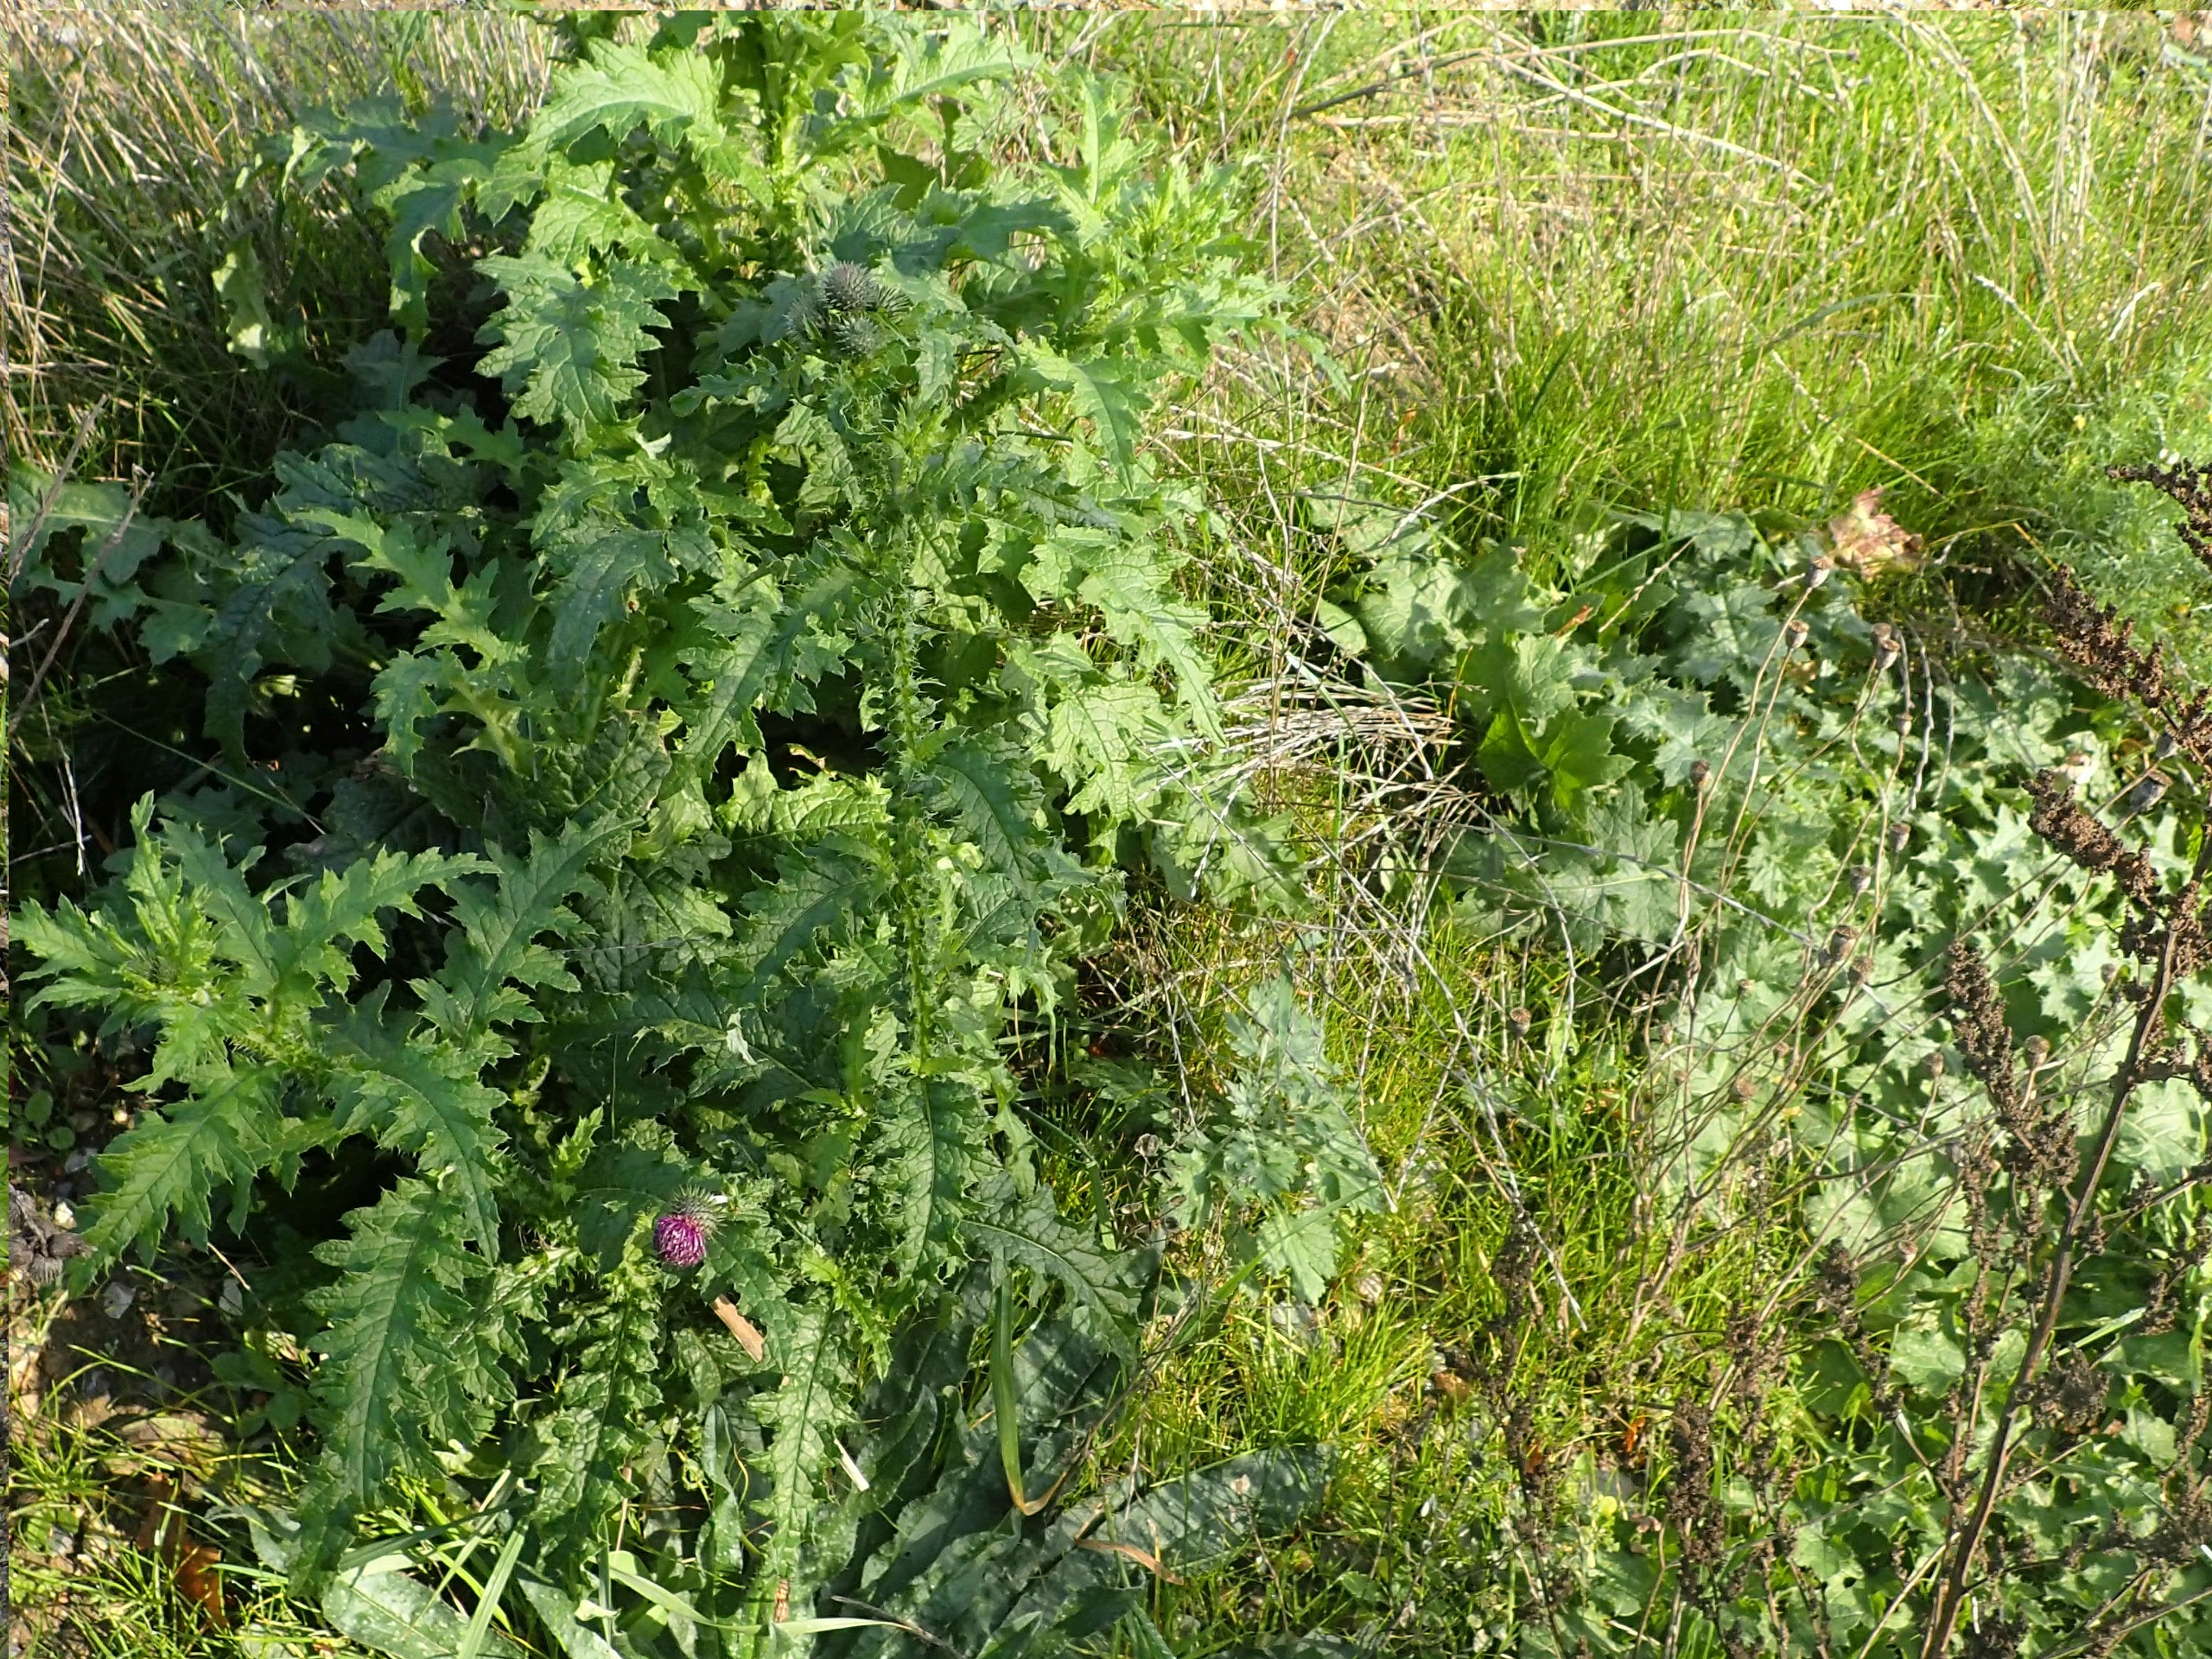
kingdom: Plantae
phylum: Tracheophyta
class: Magnoliopsida
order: Asterales
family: Asteraceae
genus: Carduus
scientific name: Carduus crispus
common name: Kruset tidsel
